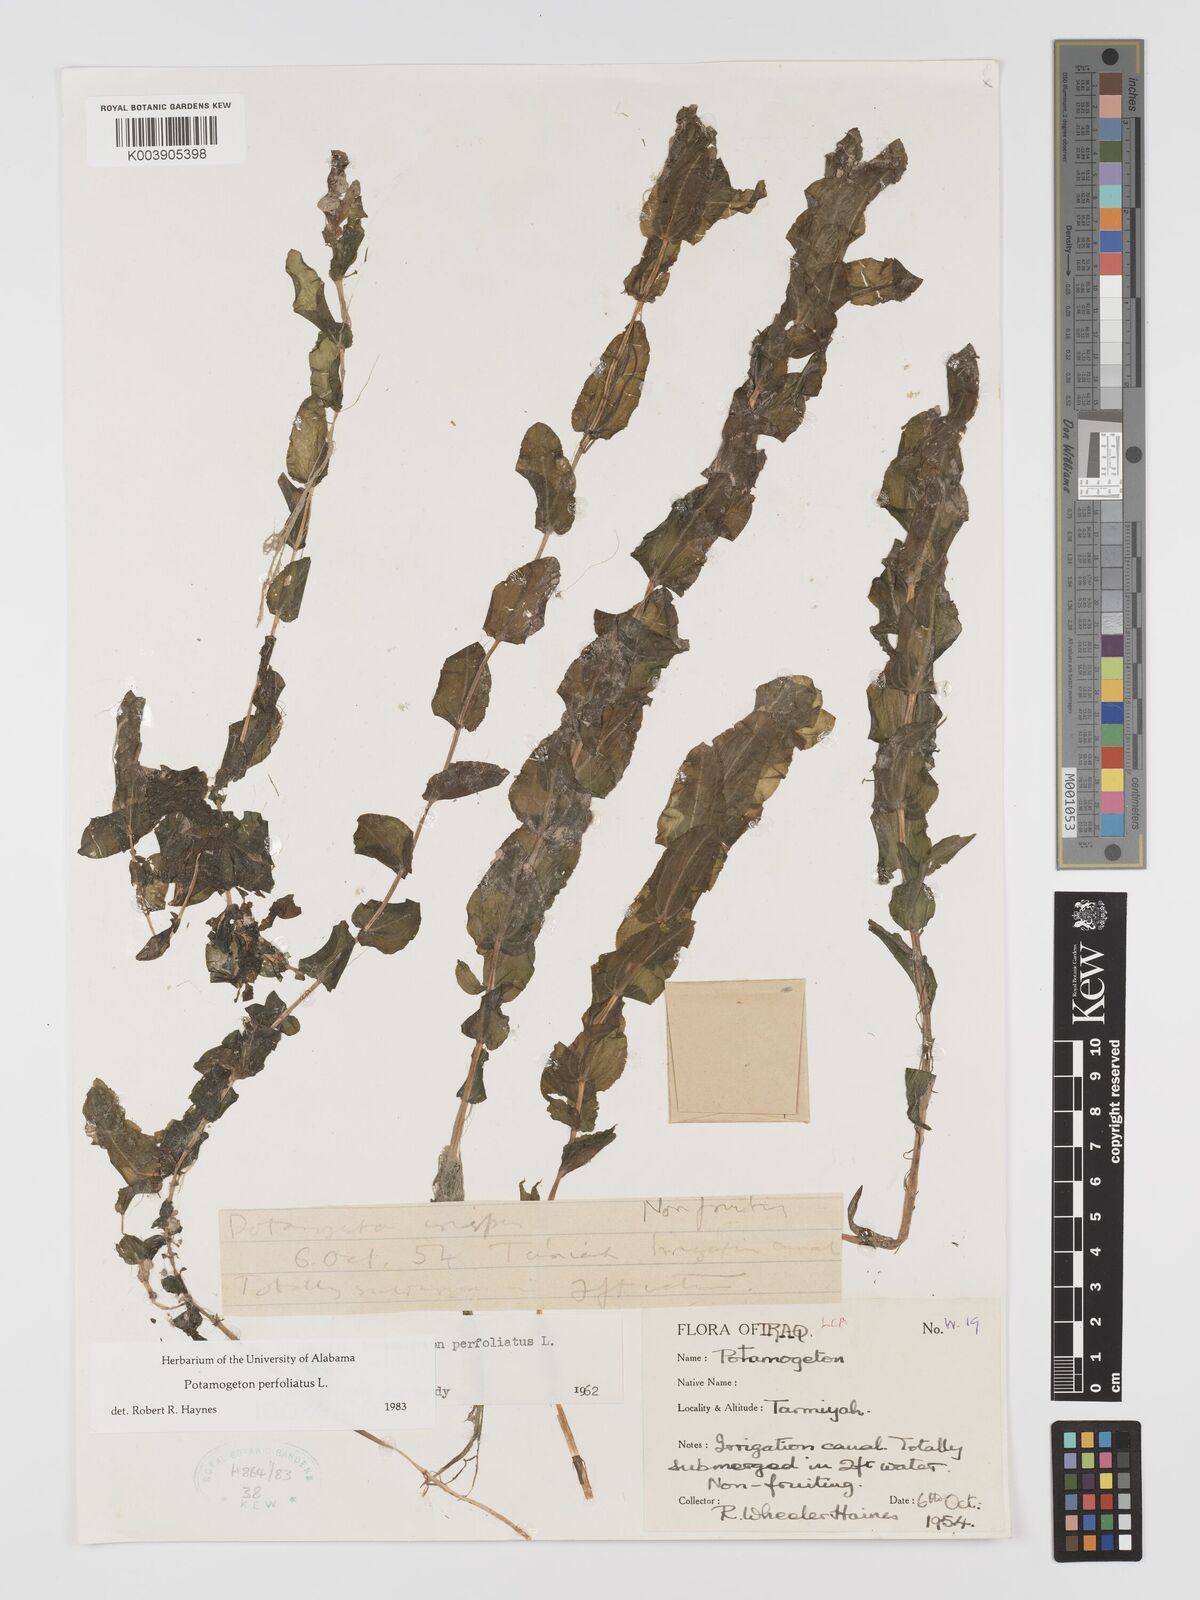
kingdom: Plantae
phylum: Tracheophyta
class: Liliopsida
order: Alismatales
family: Potamogetonaceae
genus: Potamogeton
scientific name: Potamogeton perfoliatus
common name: Perfoliate pondweed
